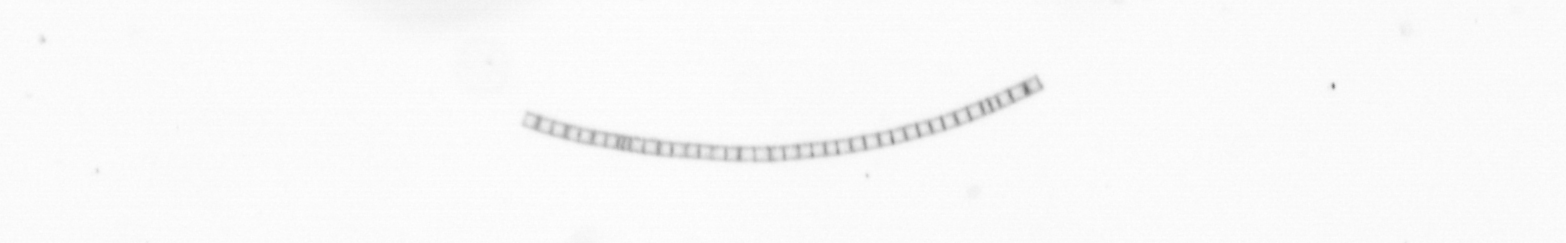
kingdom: Chromista
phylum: Ochrophyta
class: Bacillariophyceae
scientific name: Bacillariophyceae
